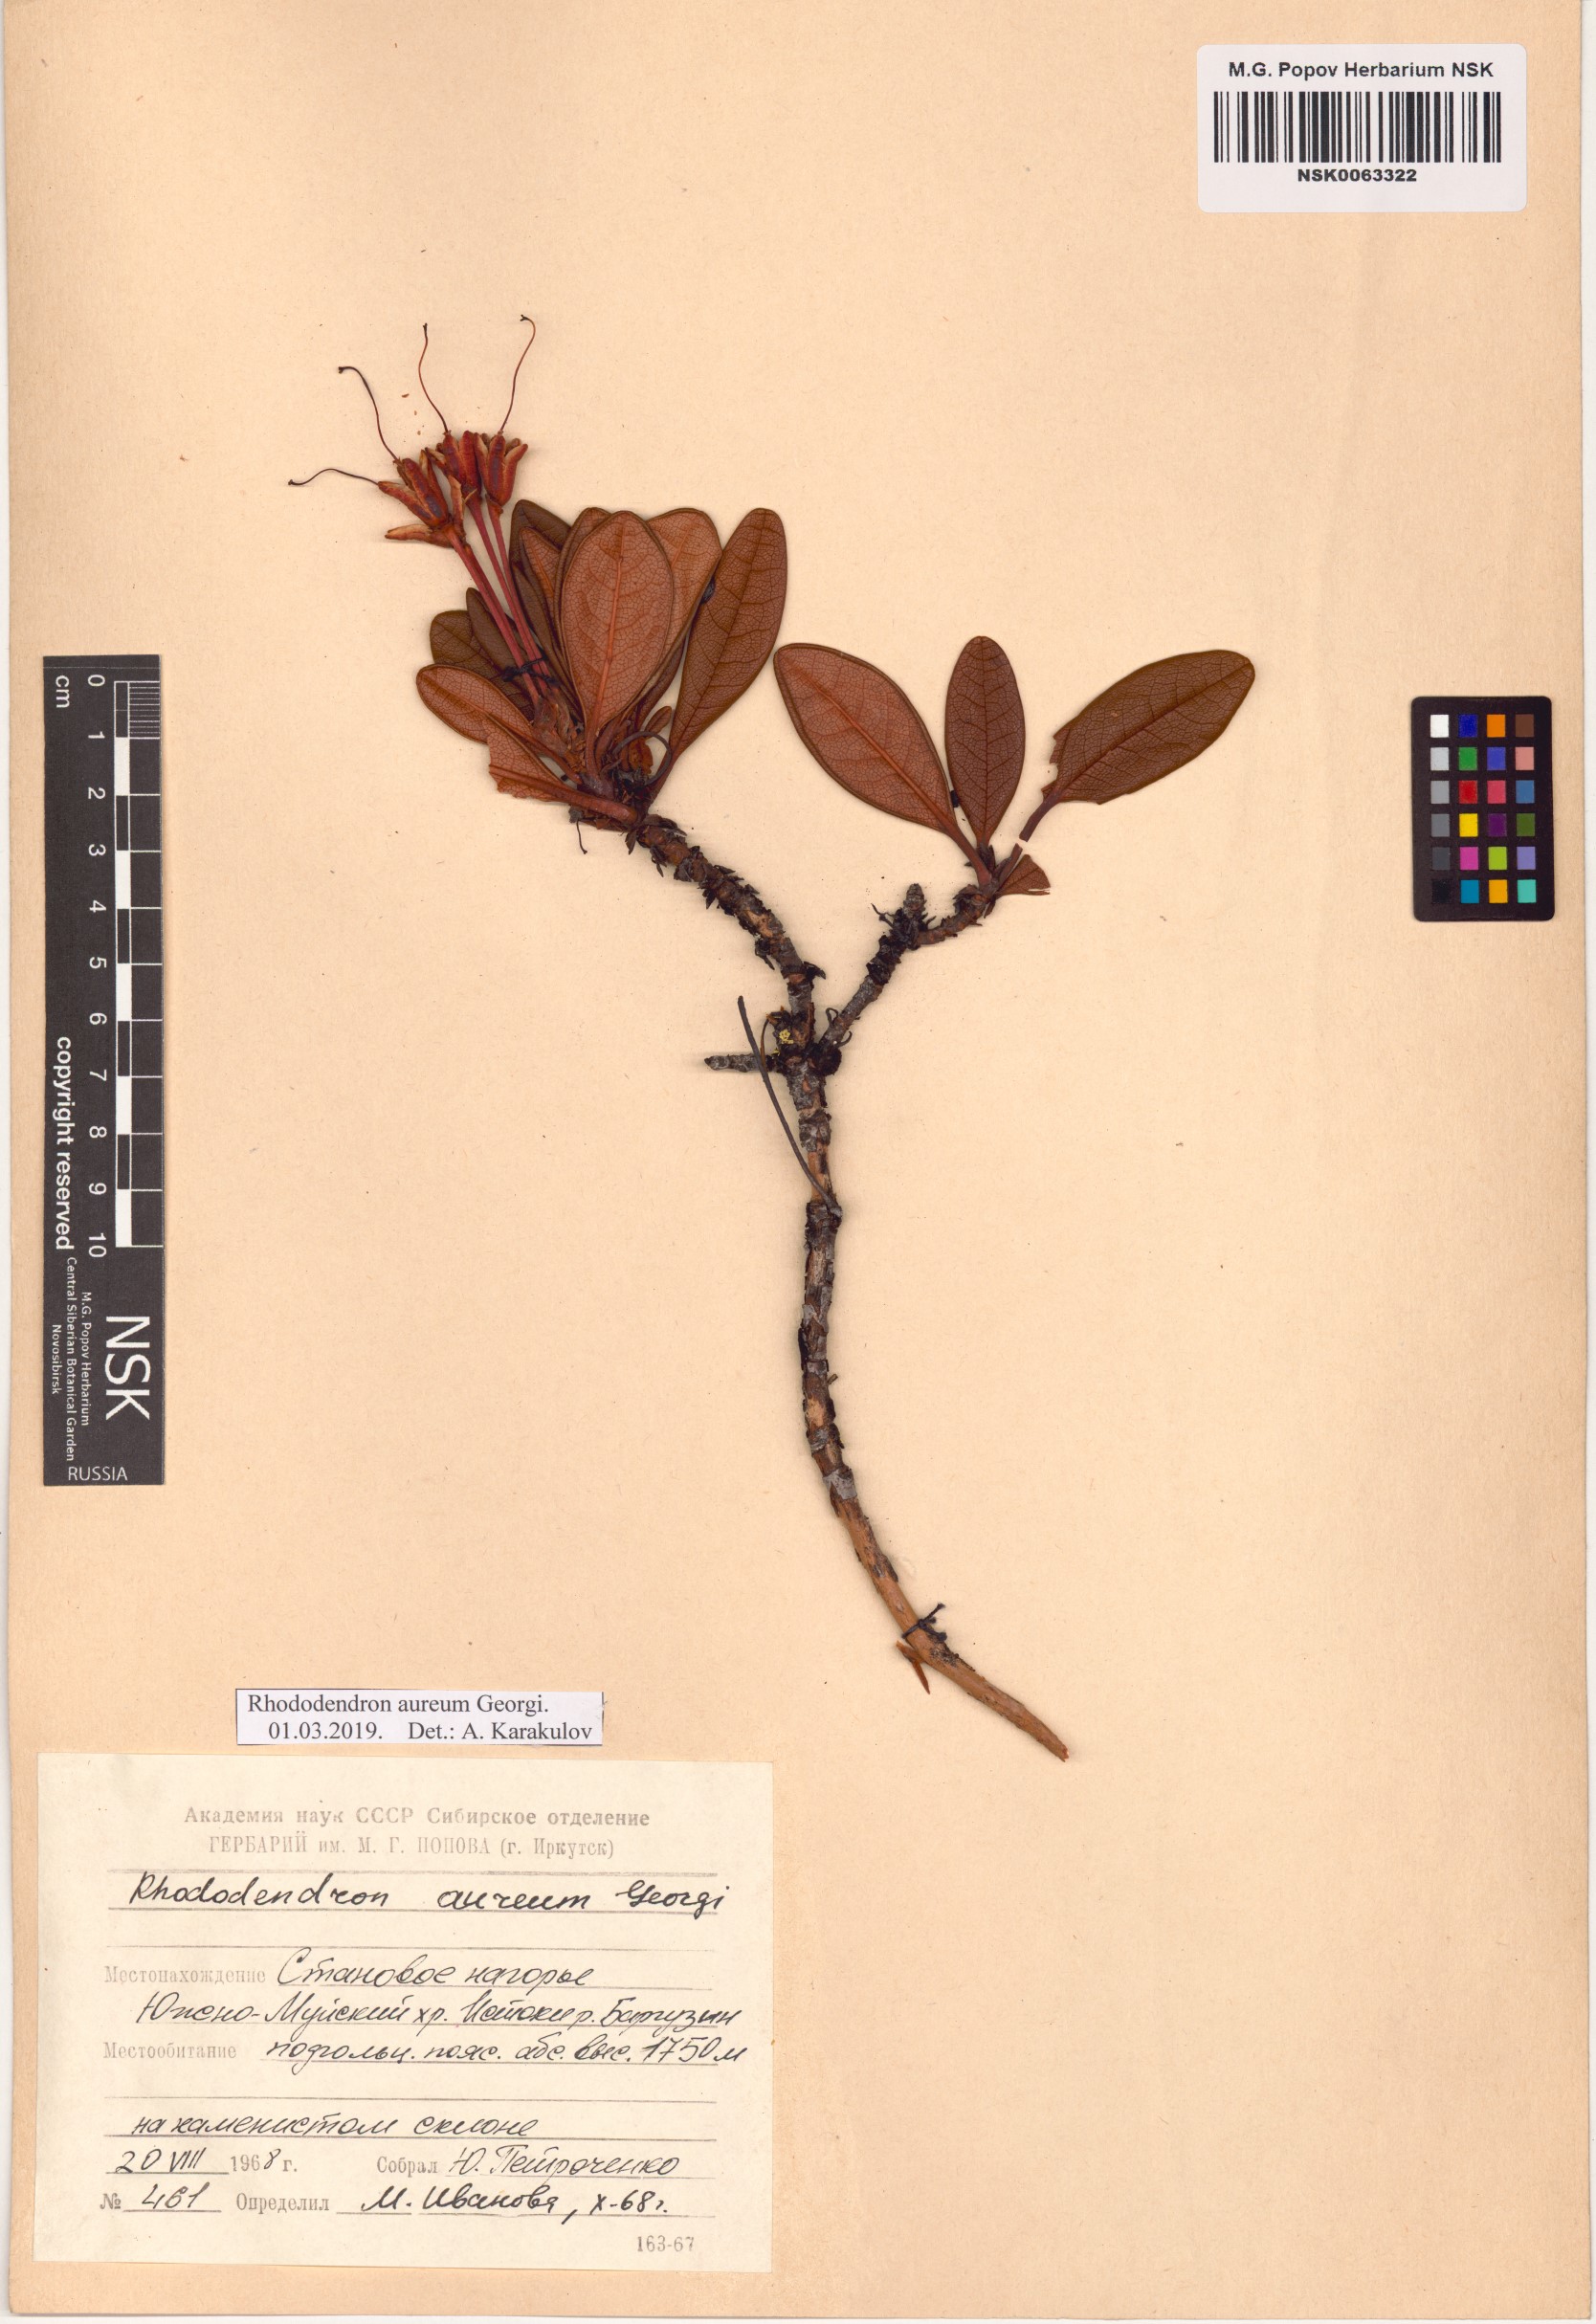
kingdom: Plantae
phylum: Tracheophyta
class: Magnoliopsida
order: Ericales
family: Ericaceae
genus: Rhododendron
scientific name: Rhododendron aureum
